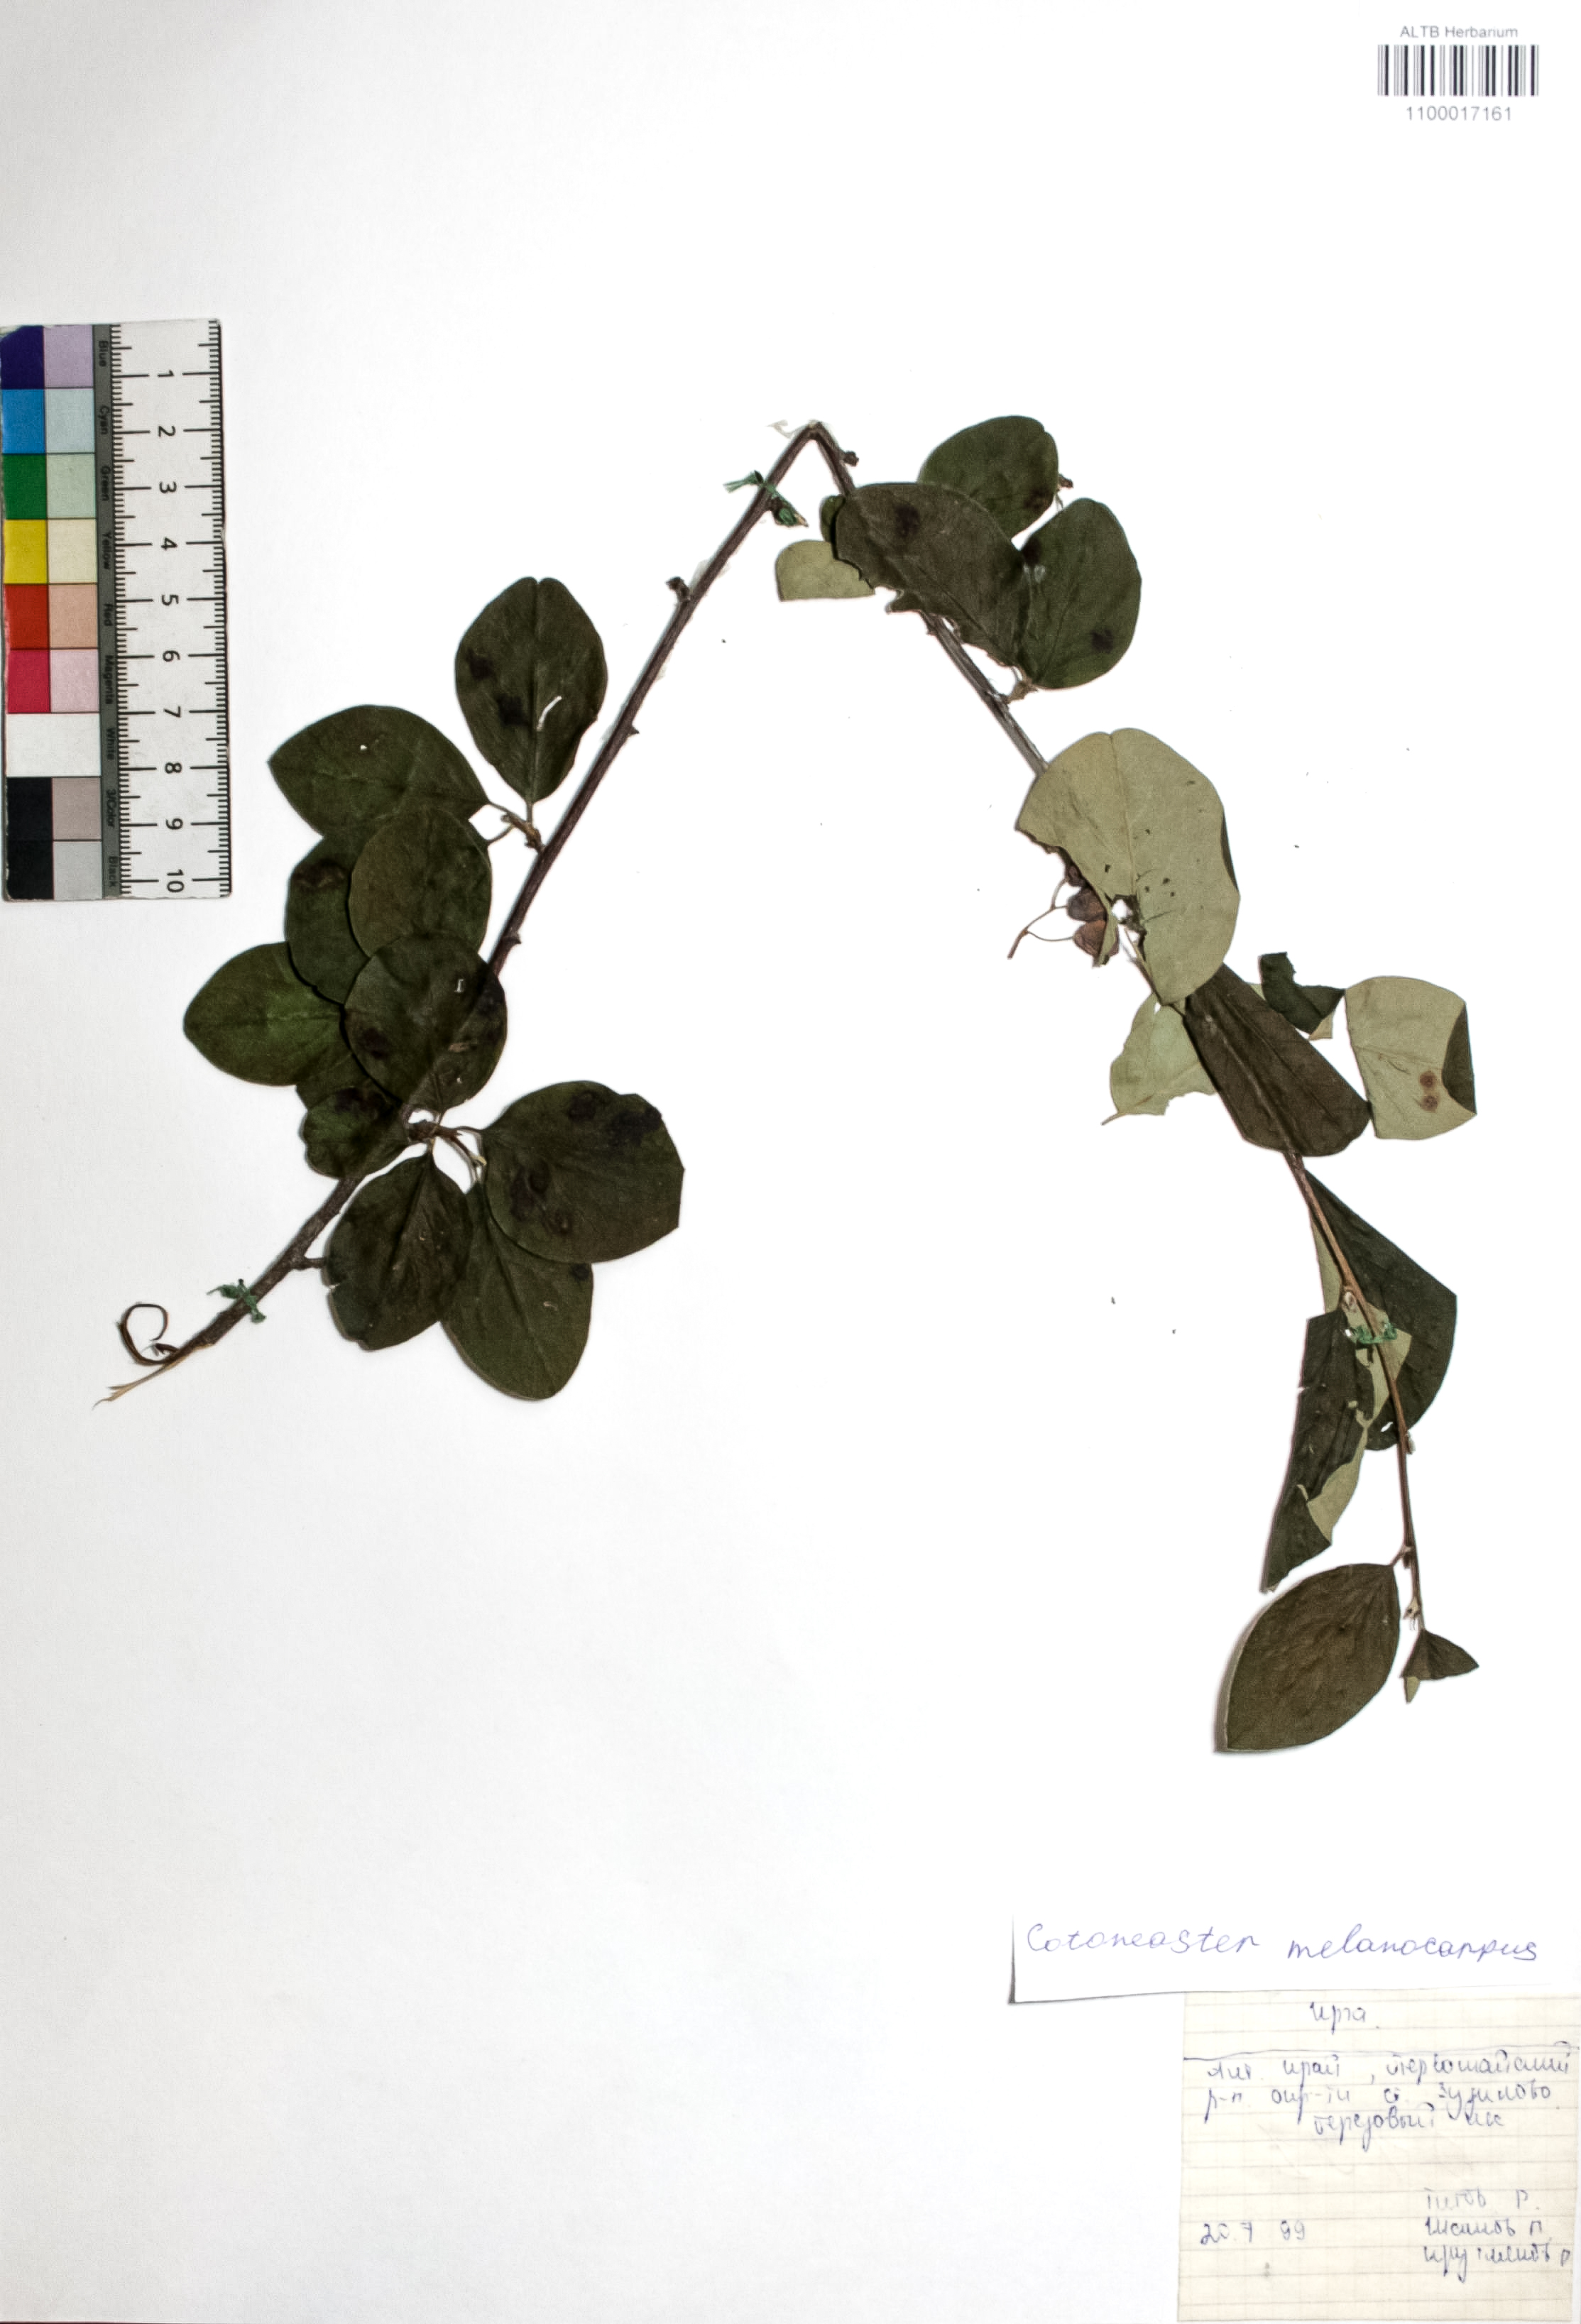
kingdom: Plantae
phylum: Tracheophyta
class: Magnoliopsida
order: Rosales
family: Rosaceae
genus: Cotoneaster
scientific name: Cotoneaster niger
